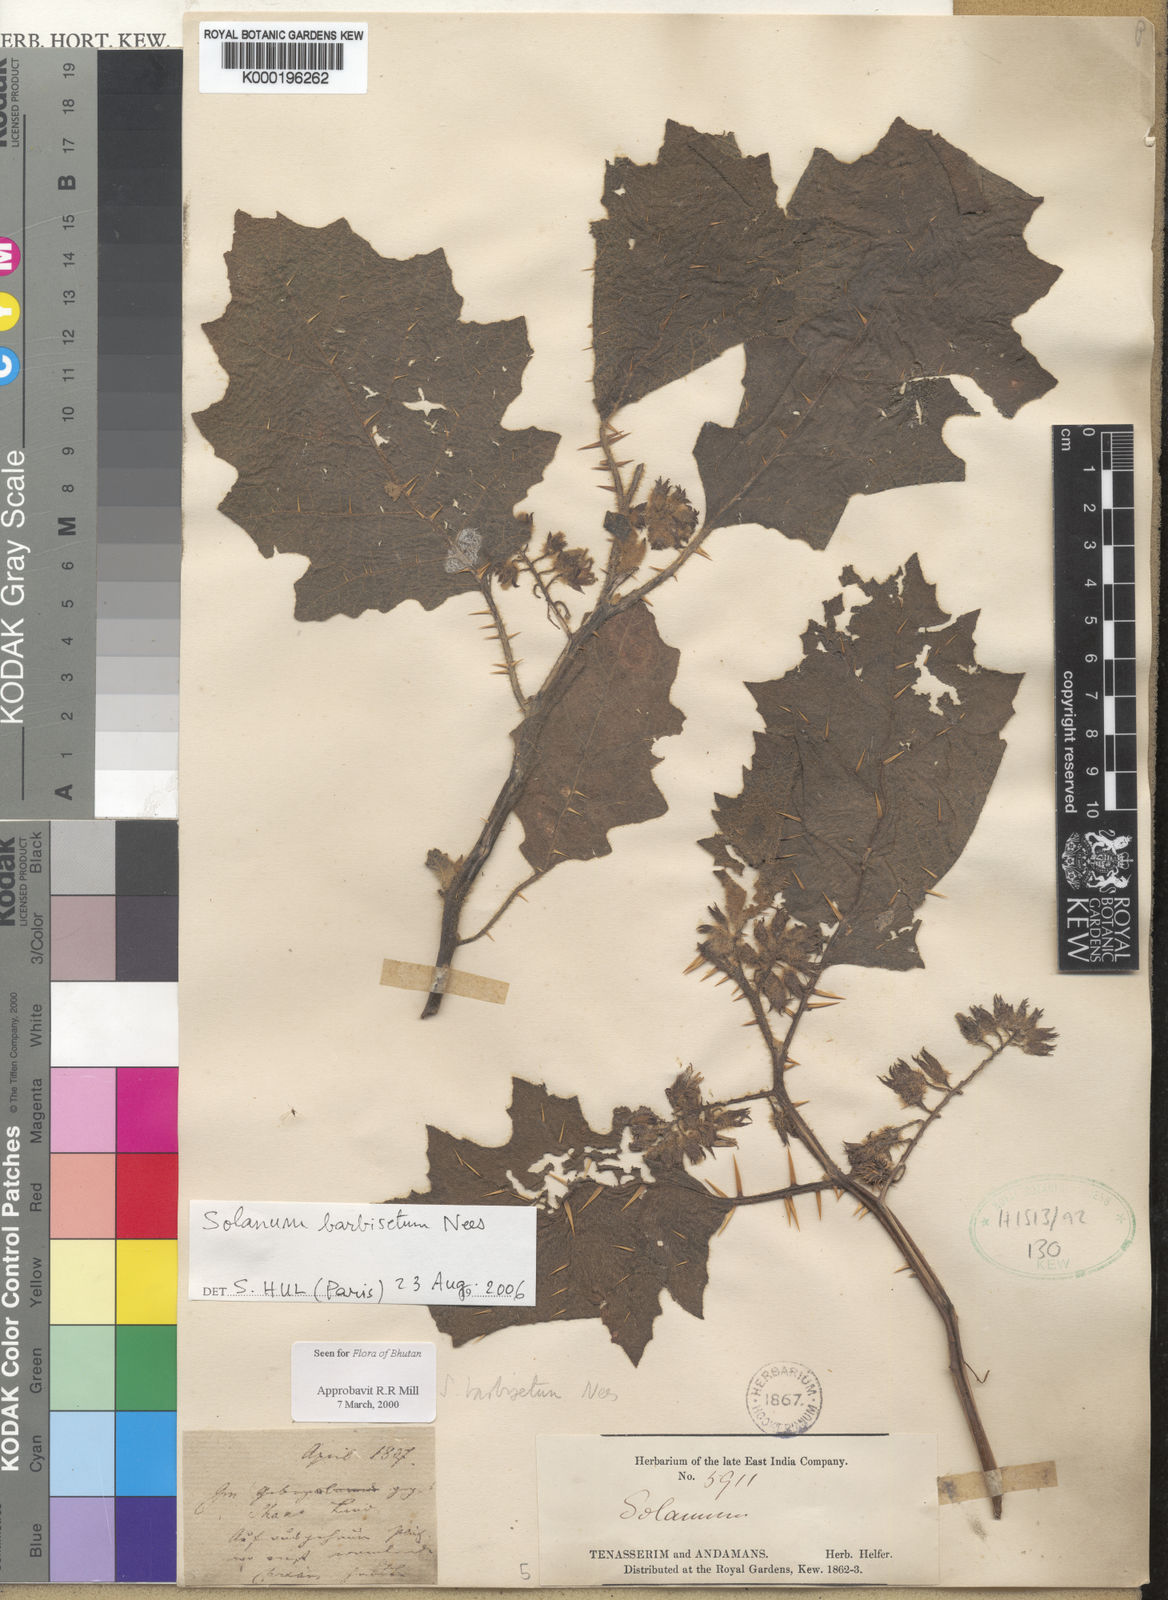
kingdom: Plantae
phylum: Tracheophyta
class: Magnoliopsida
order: Solanales
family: Solanaceae
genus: Solanum
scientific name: Solanum barbisetum
